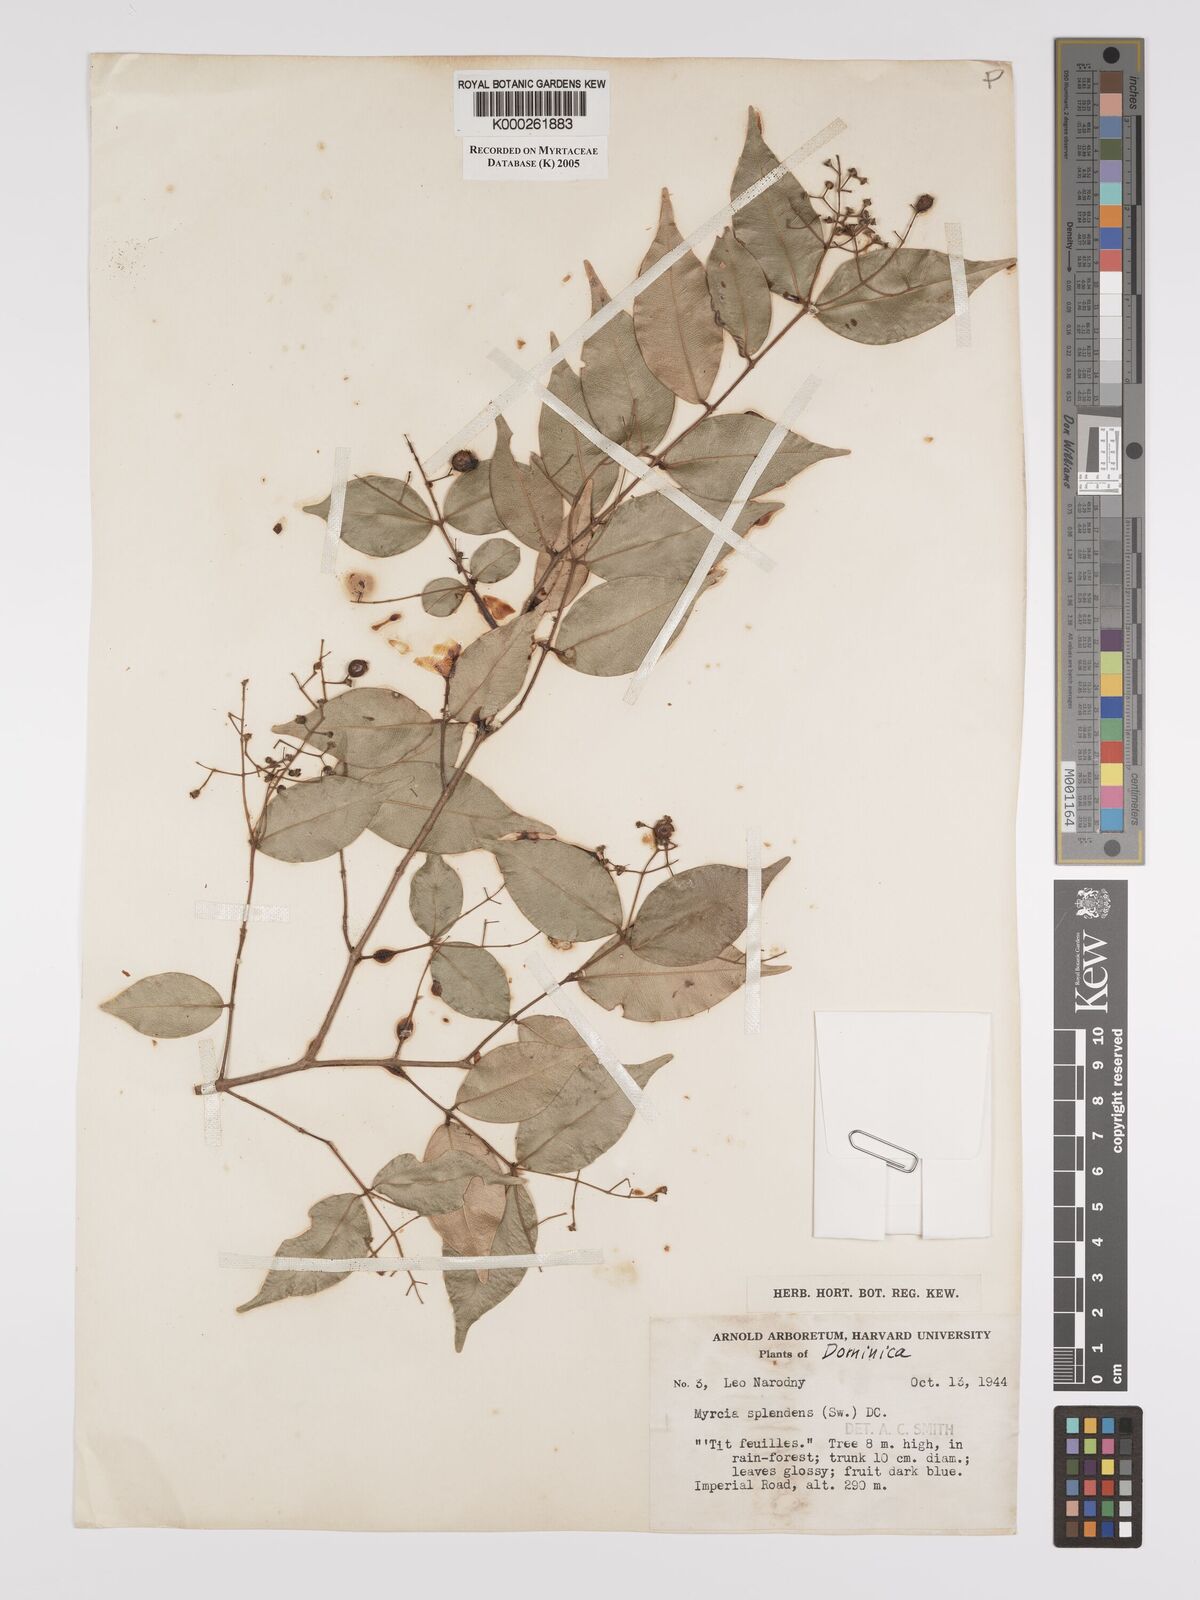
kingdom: Plantae
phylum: Tracheophyta
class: Magnoliopsida
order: Myrtales
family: Myrtaceae
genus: Myrcia
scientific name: Myrcia splendens
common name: Surinam cherry
